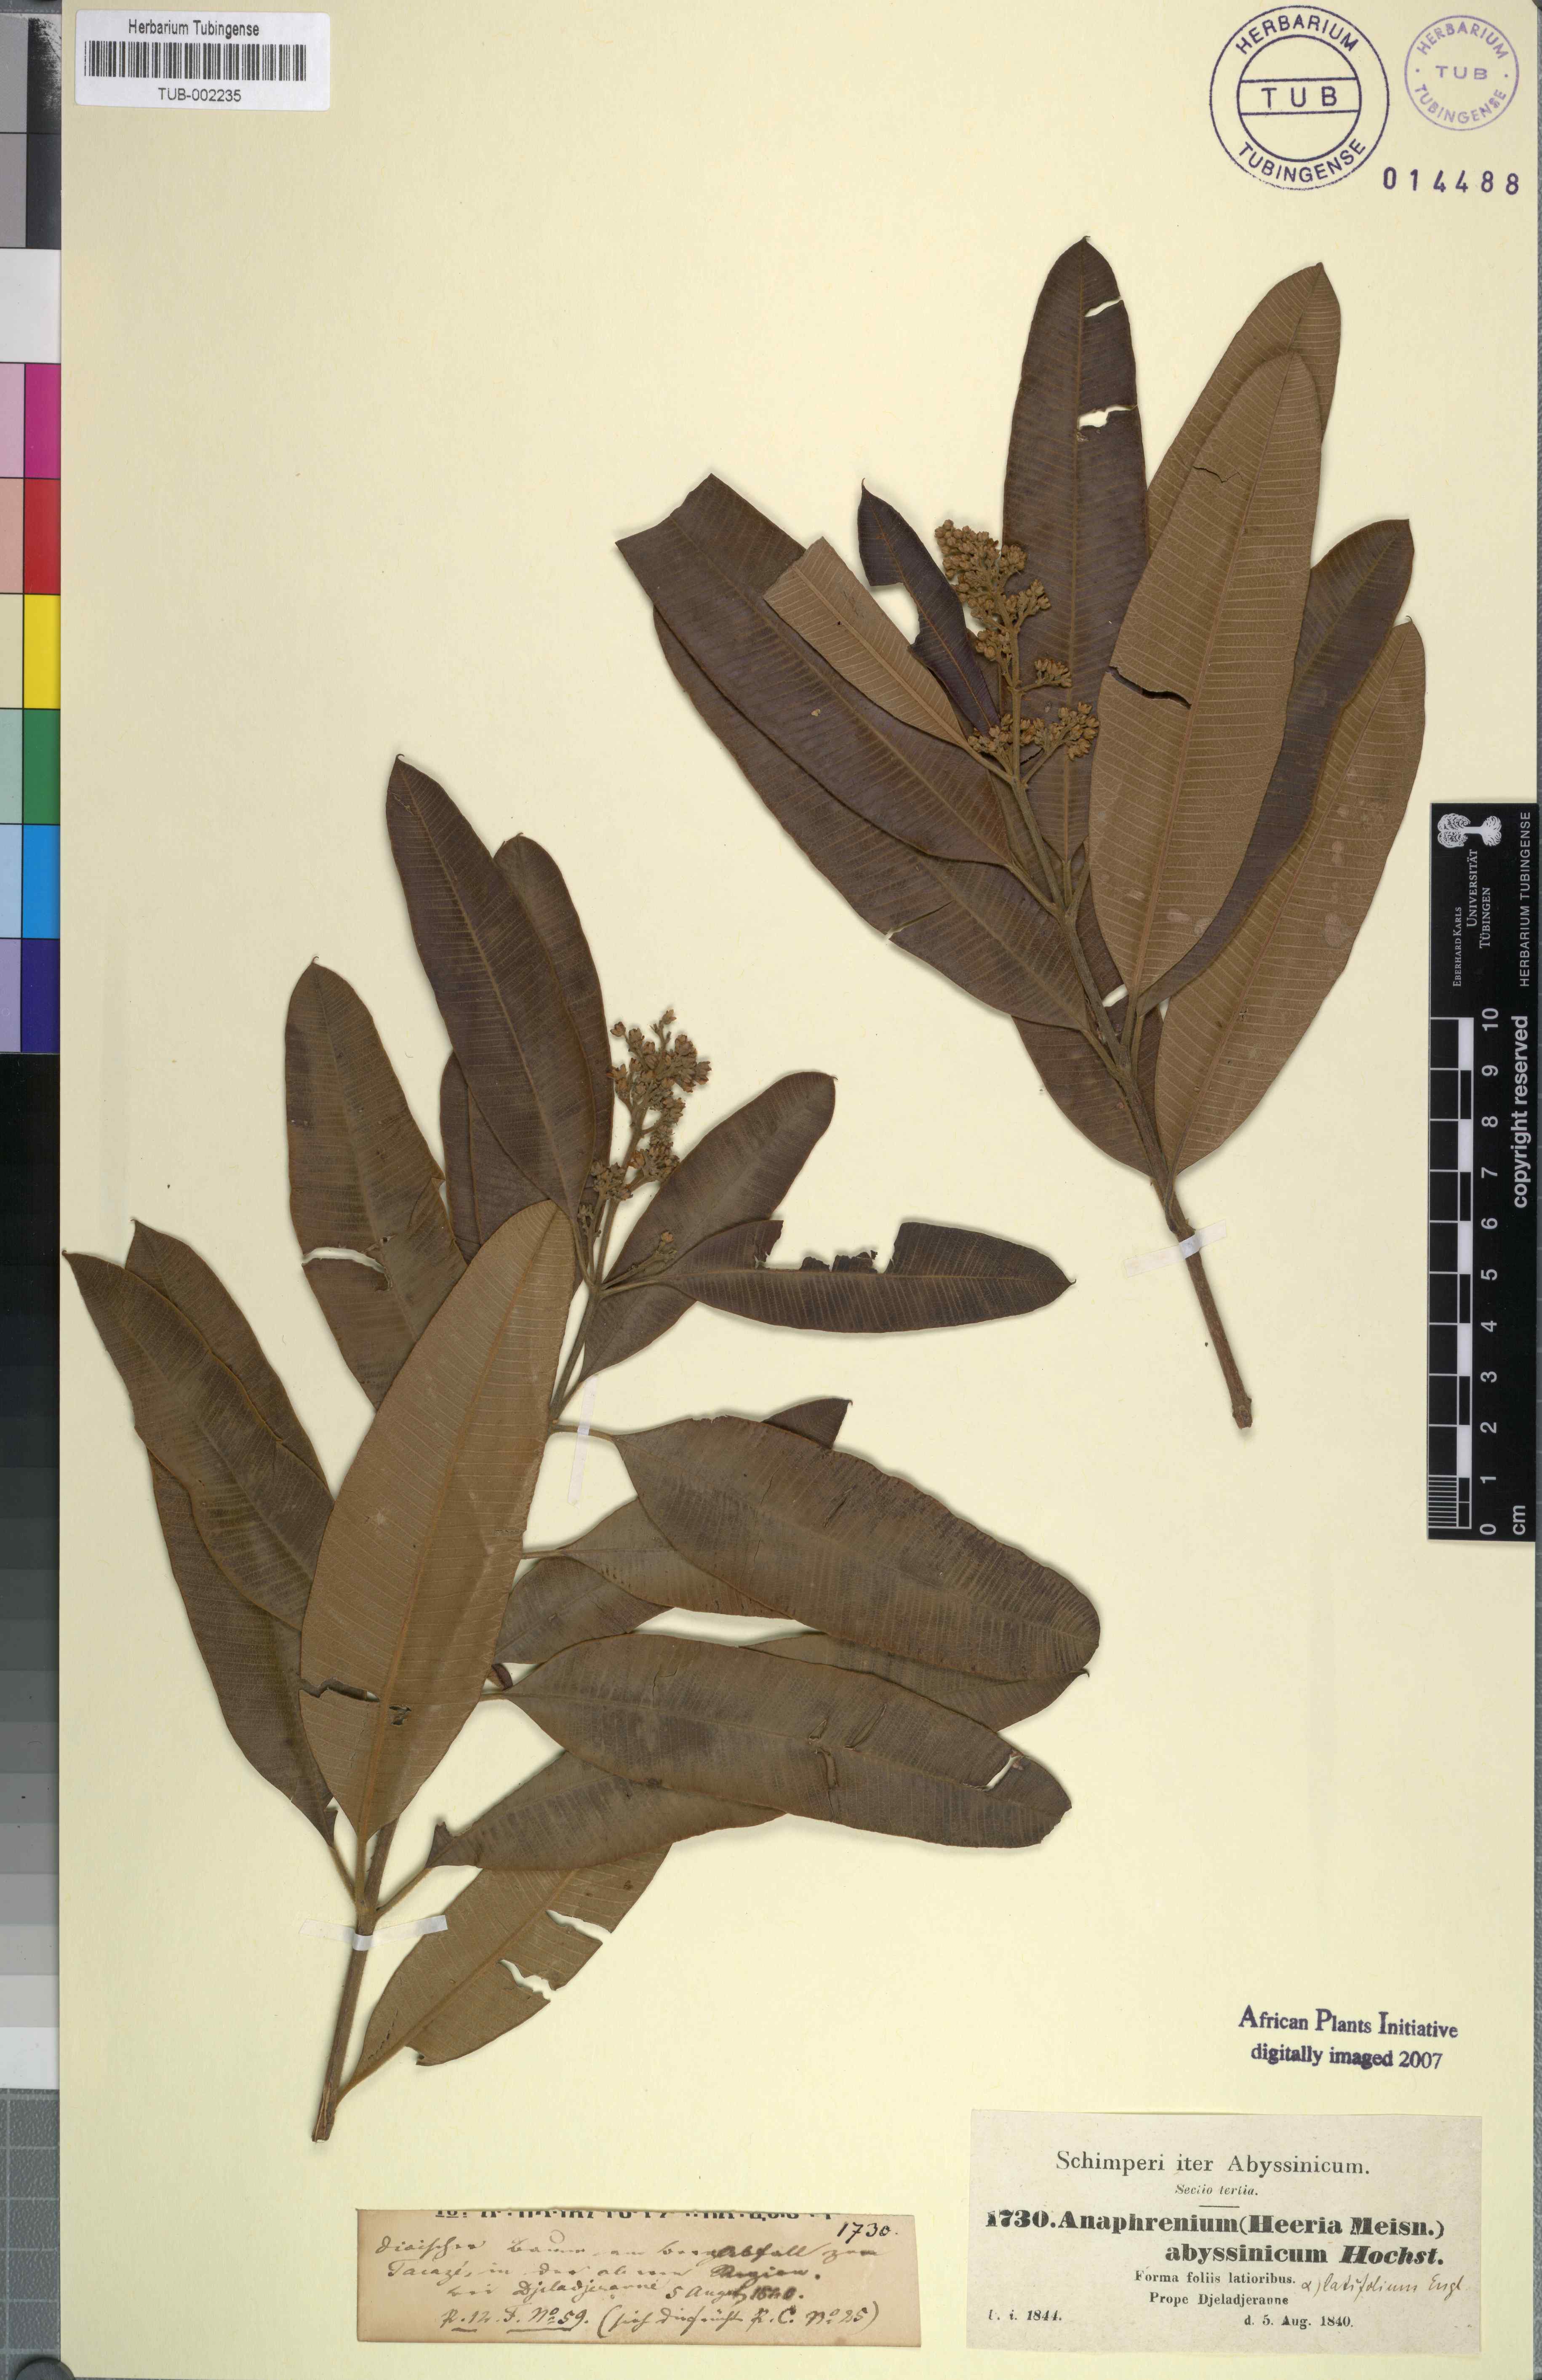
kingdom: Plantae
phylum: Tracheophyta
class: Magnoliopsida
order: Sapindales
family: Anacardiaceae
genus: Ozoroa
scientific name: Ozoroa insignis
